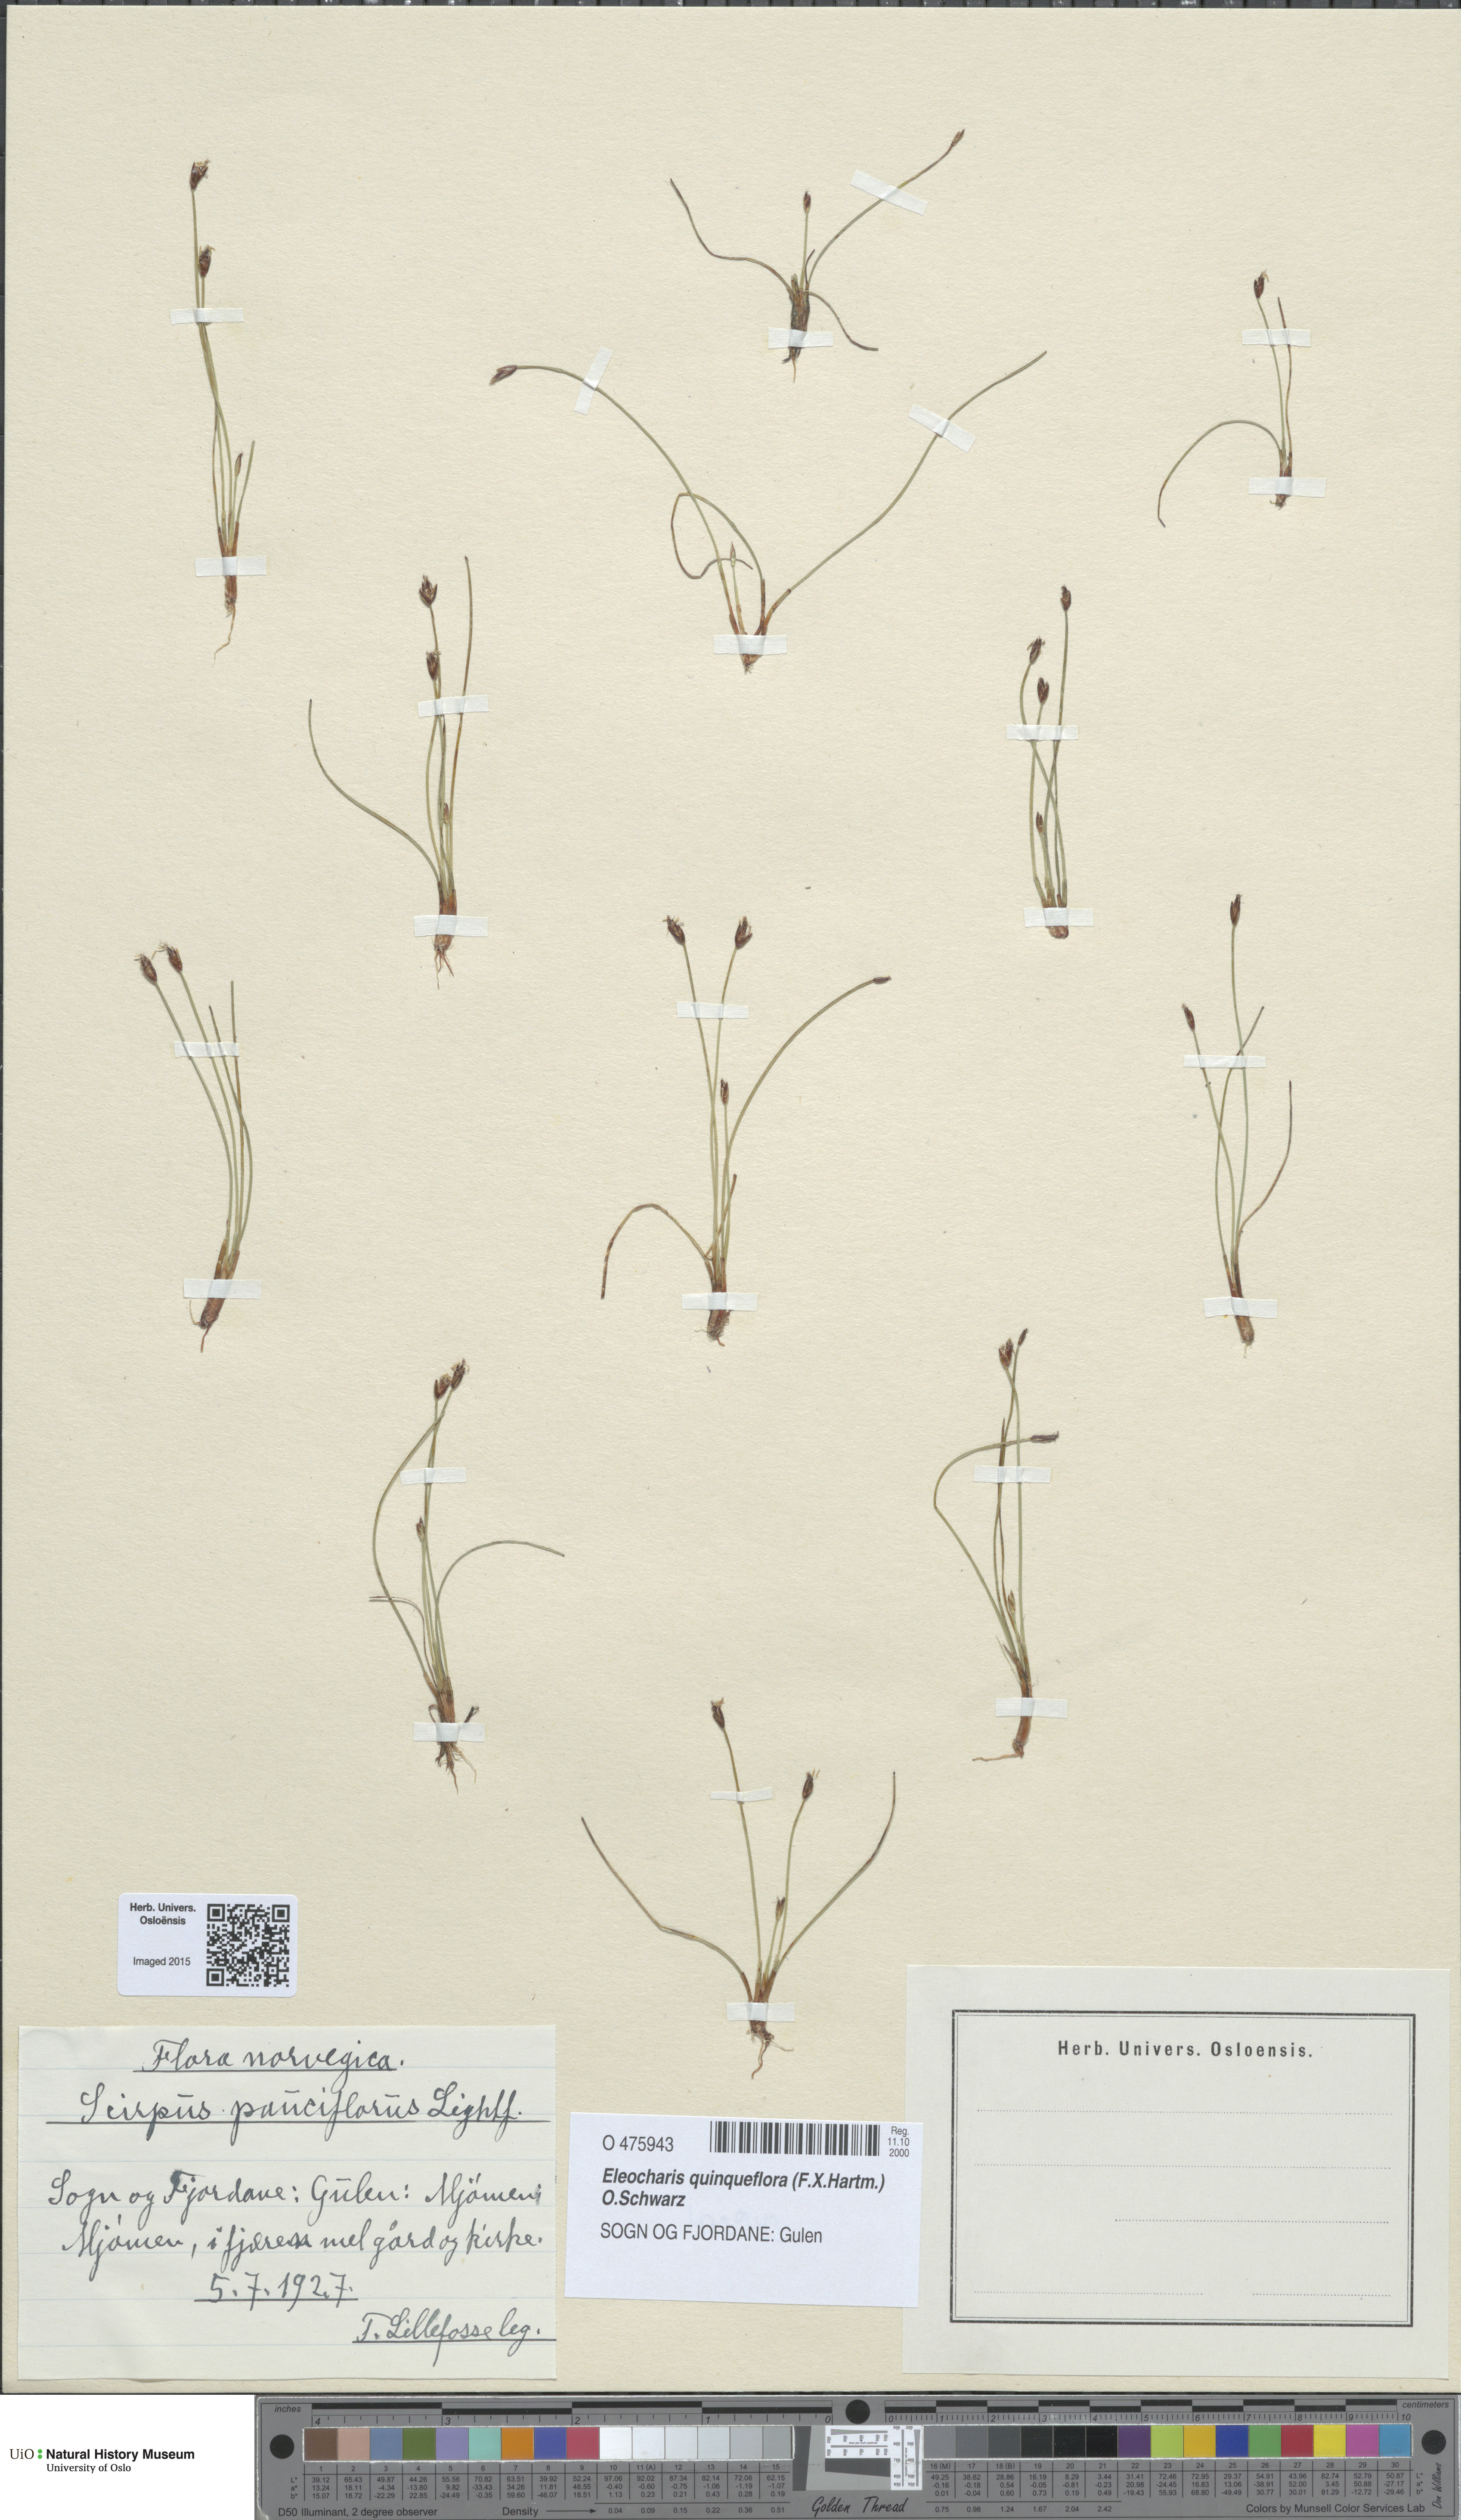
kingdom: Plantae
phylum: Tracheophyta
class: Liliopsida
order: Poales
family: Cyperaceae
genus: Eleocharis
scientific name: Eleocharis quinqueflora
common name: Few-flowered spike-rush
